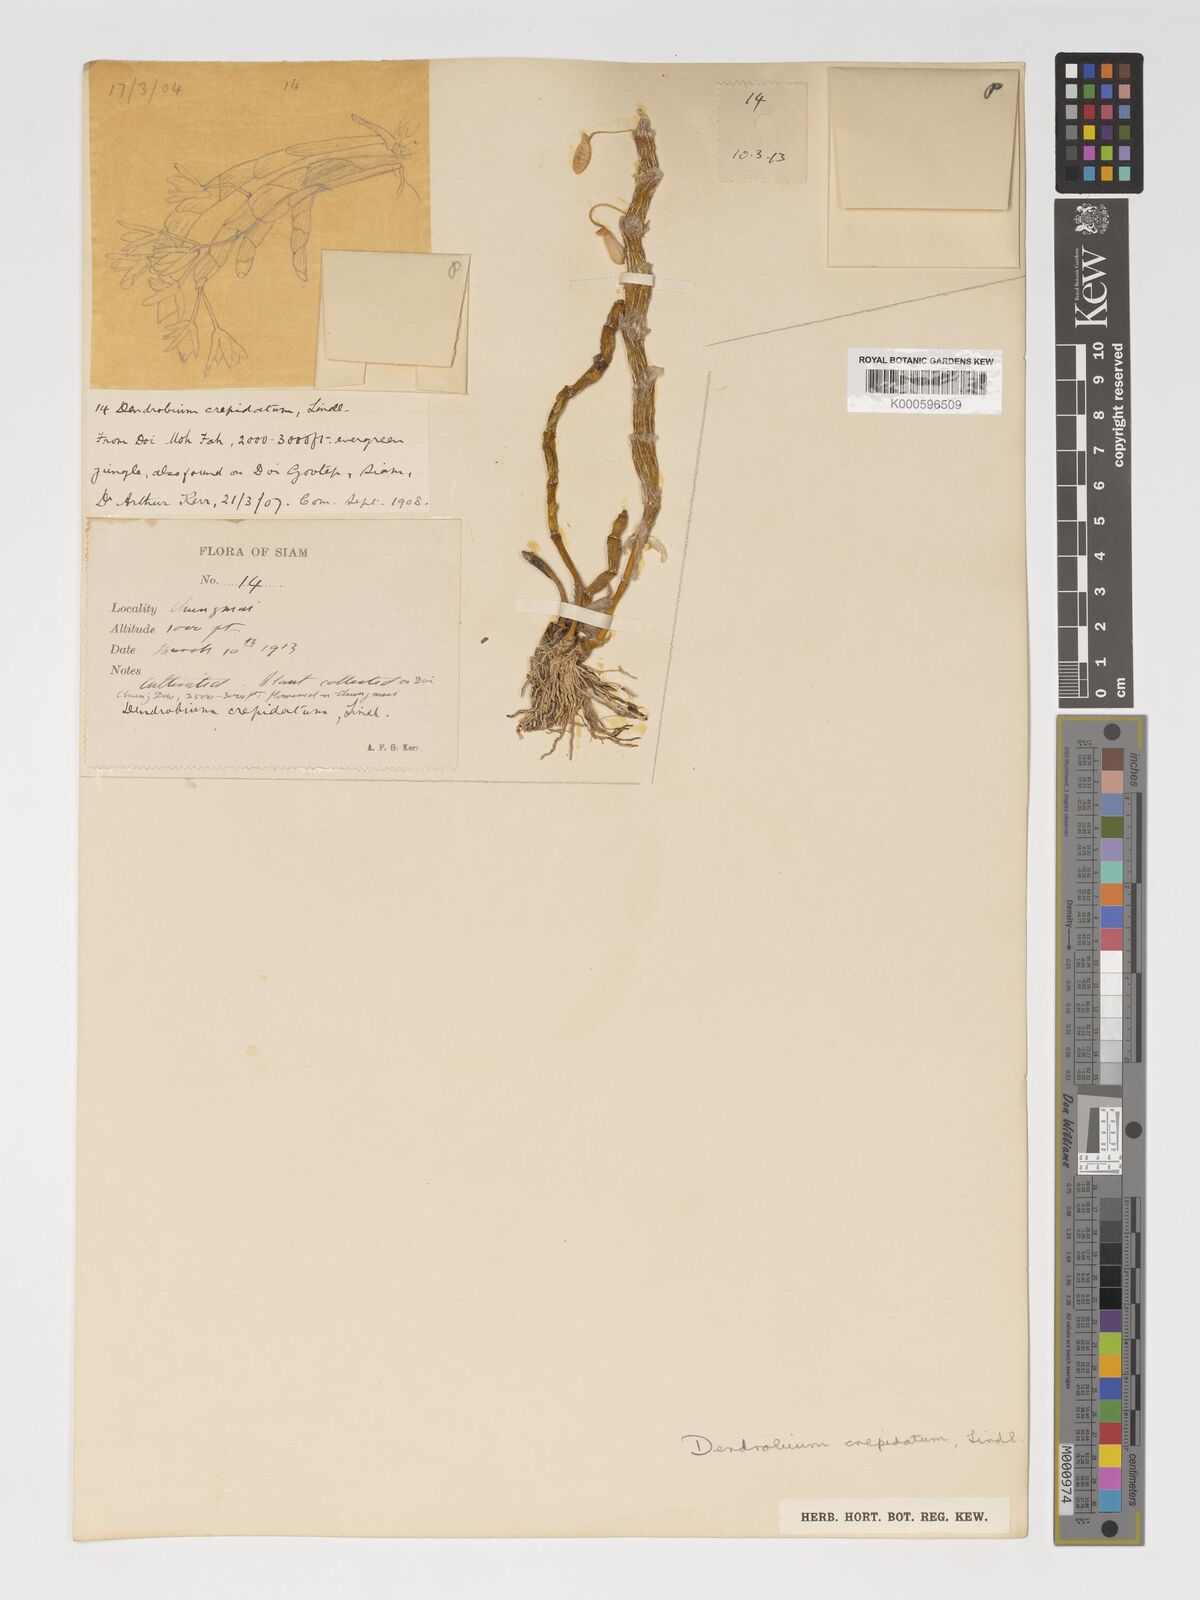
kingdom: Plantae
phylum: Tracheophyta
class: Liliopsida
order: Asparagales
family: Orchidaceae
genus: Dendrobium
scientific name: Dendrobium crepidatum
